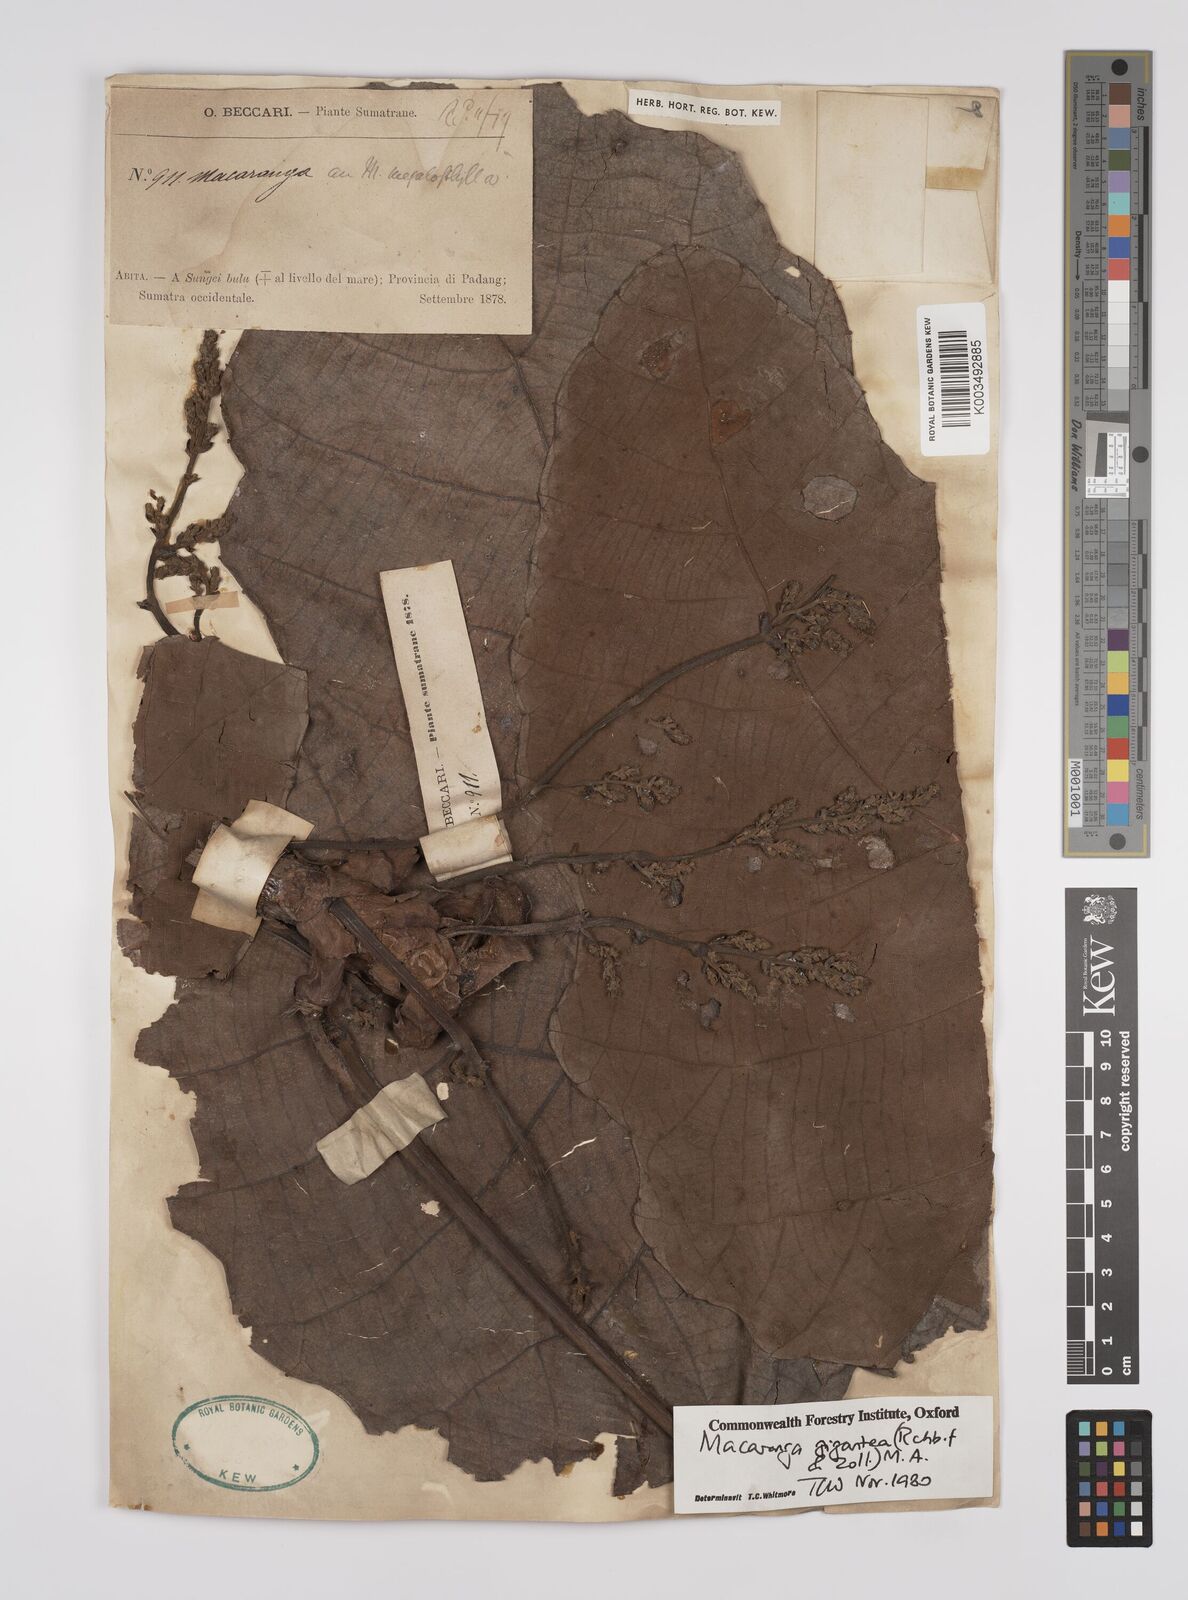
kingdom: Plantae
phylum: Tracheophyta
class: Magnoliopsida
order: Malpighiales
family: Euphorbiaceae
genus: Macaranga
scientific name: Macaranga gigantea
